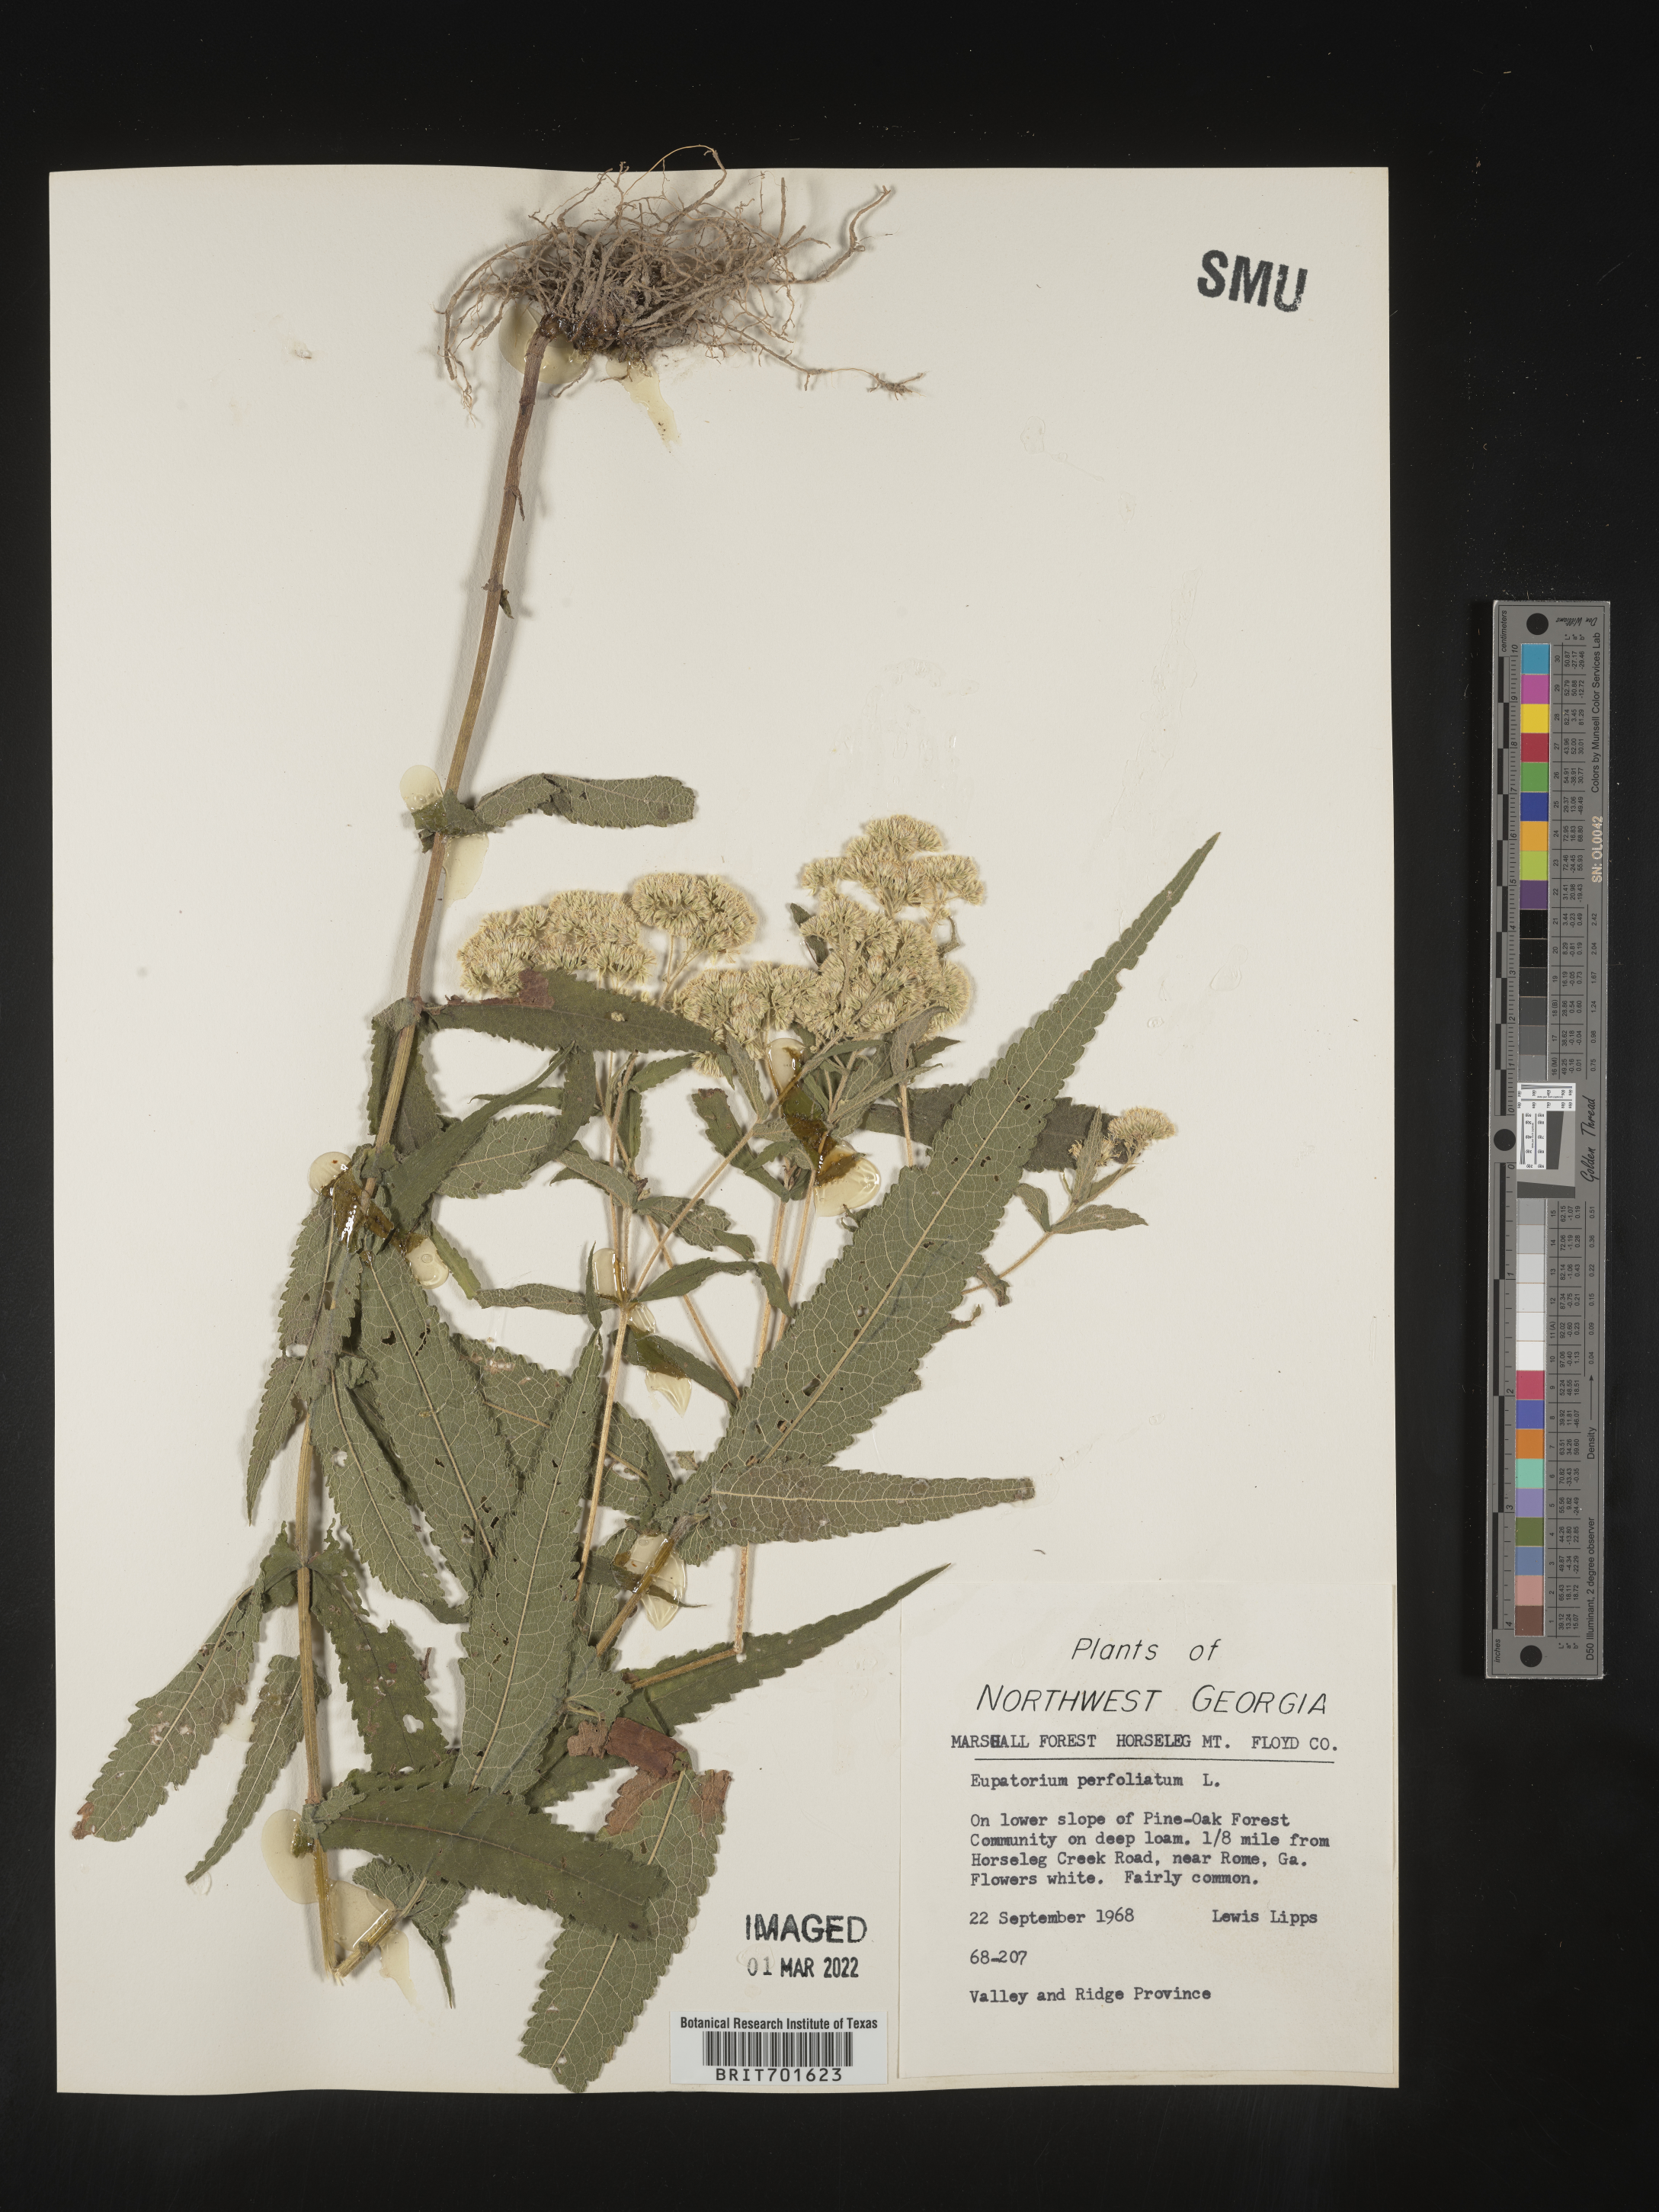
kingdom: Plantae
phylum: Tracheophyta
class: Magnoliopsida
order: Asterales
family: Asteraceae
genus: Eupatorium
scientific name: Eupatorium perfoliatum
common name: Boneset
